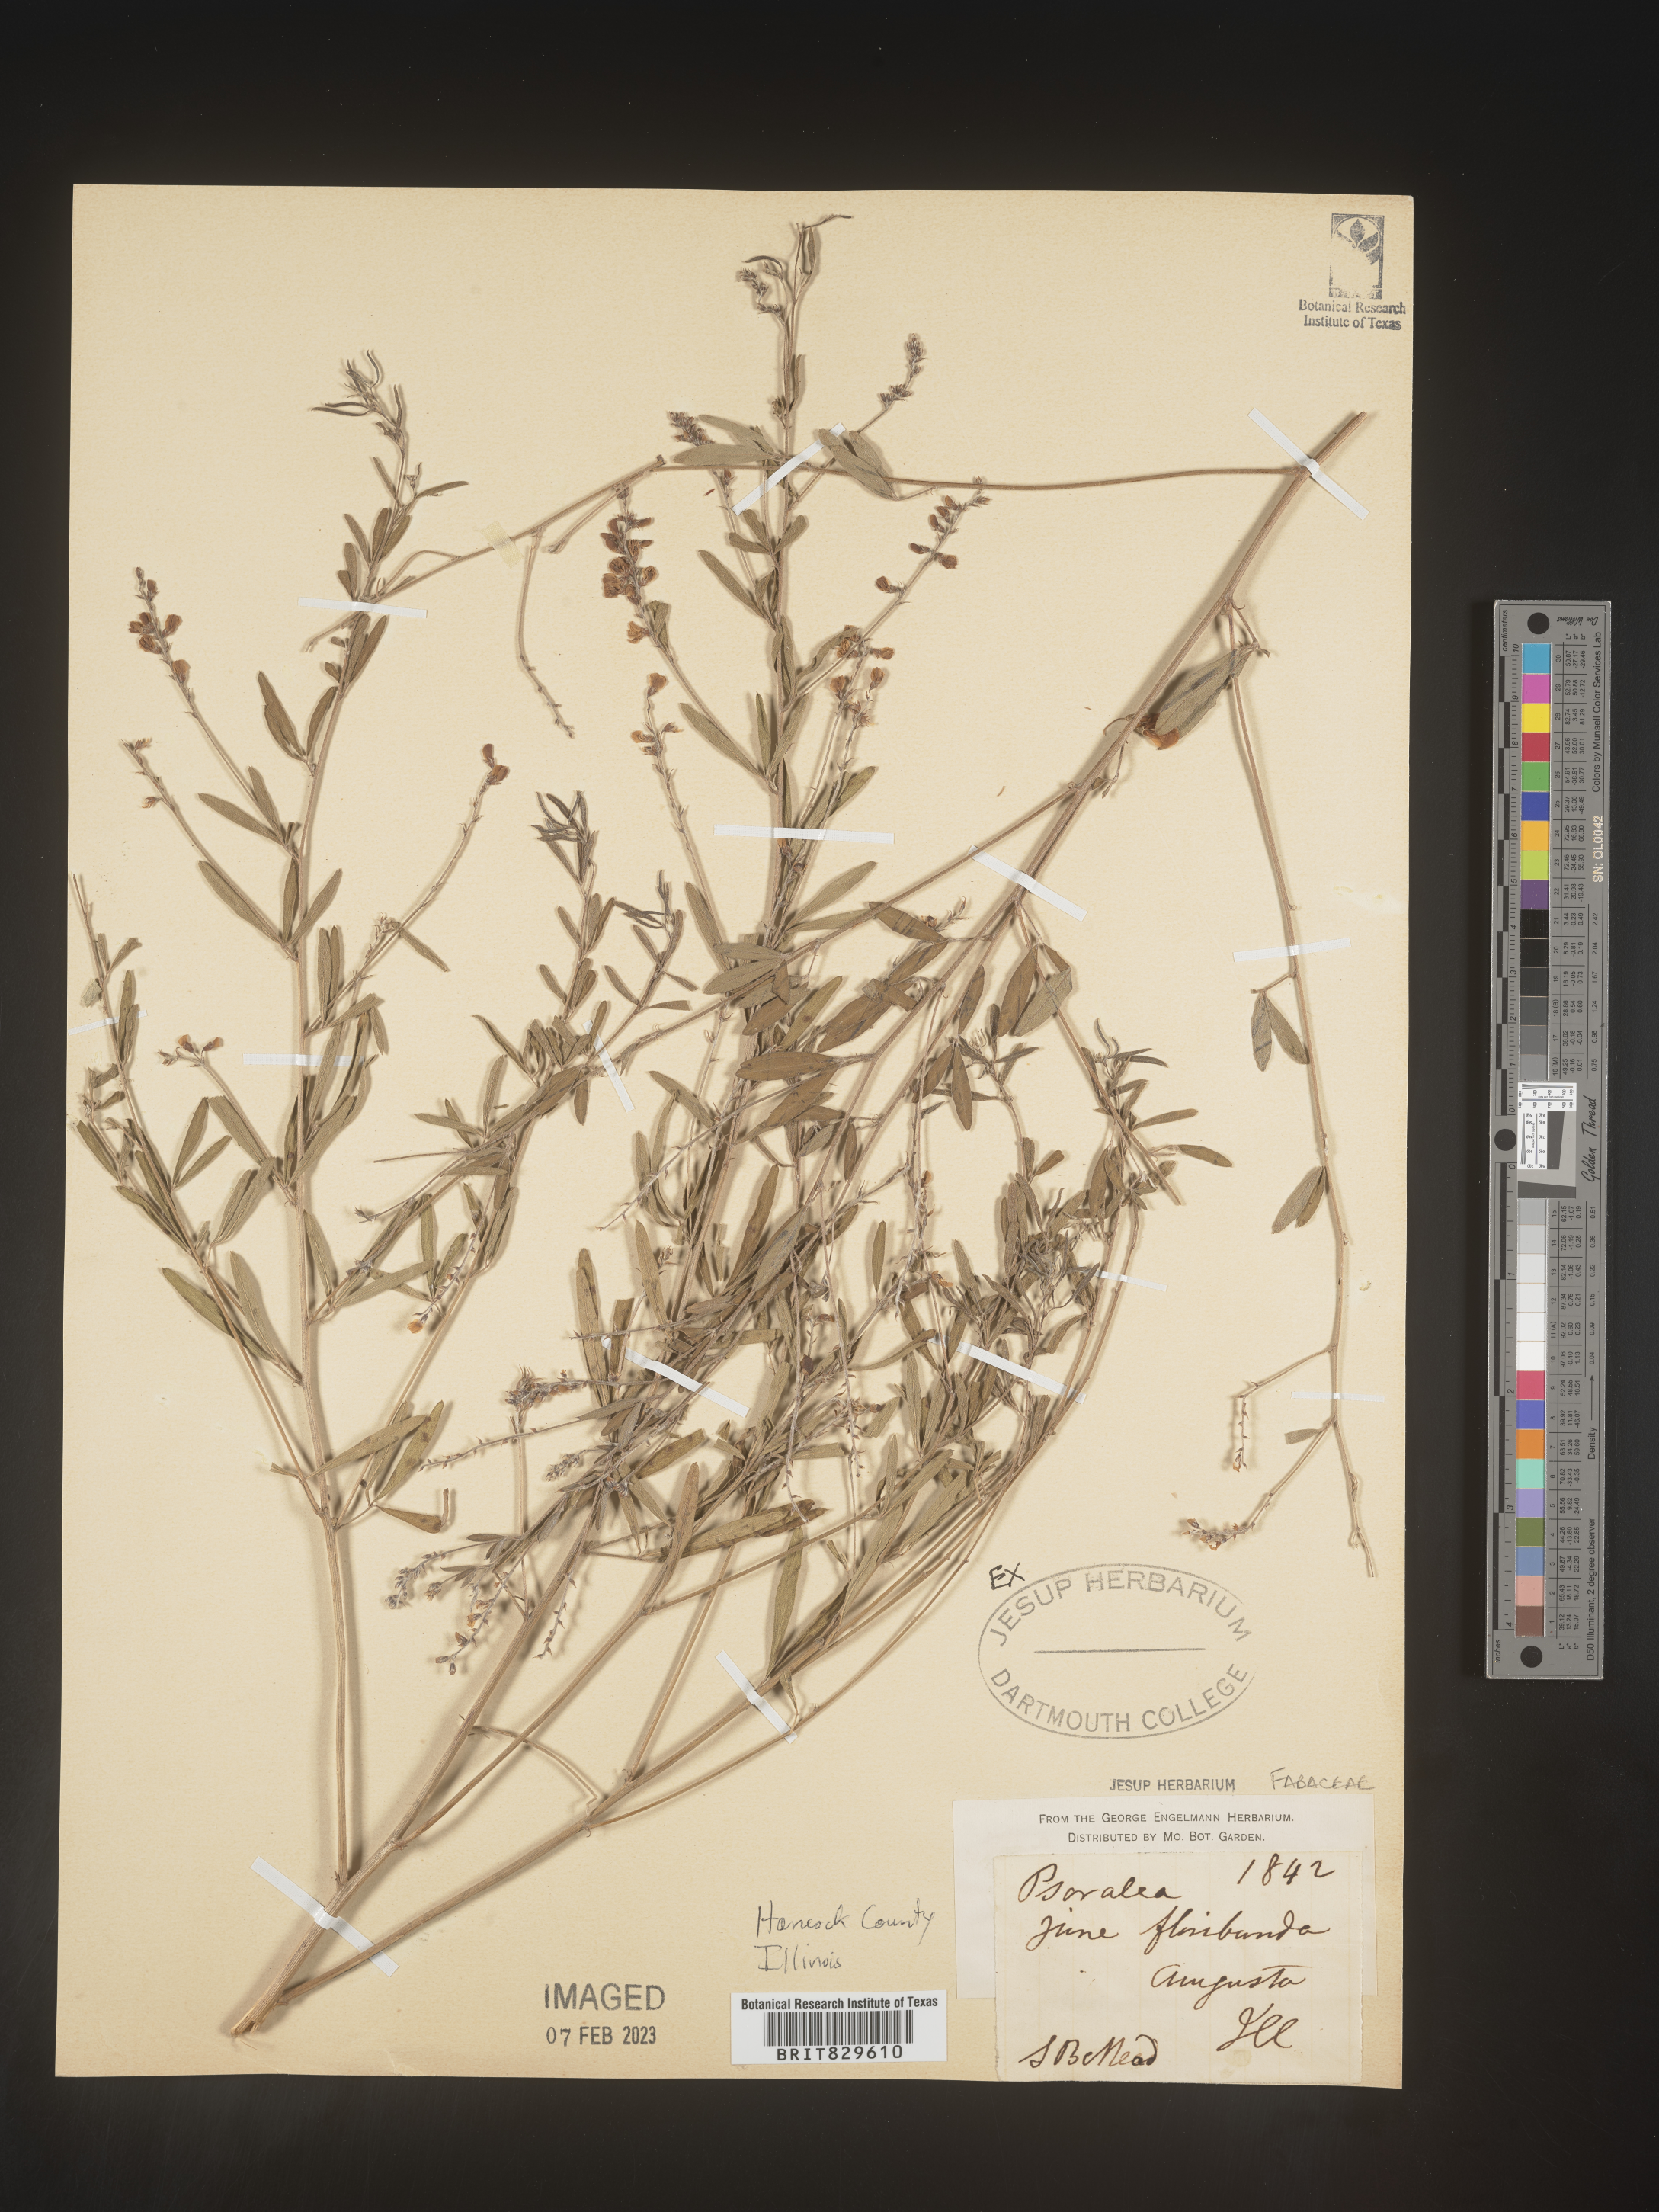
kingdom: Plantae
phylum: Tracheophyta
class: Magnoliopsida
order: Fabales
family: Fabaceae
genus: Pediomelum
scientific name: Pediomelum tenuiflorum
